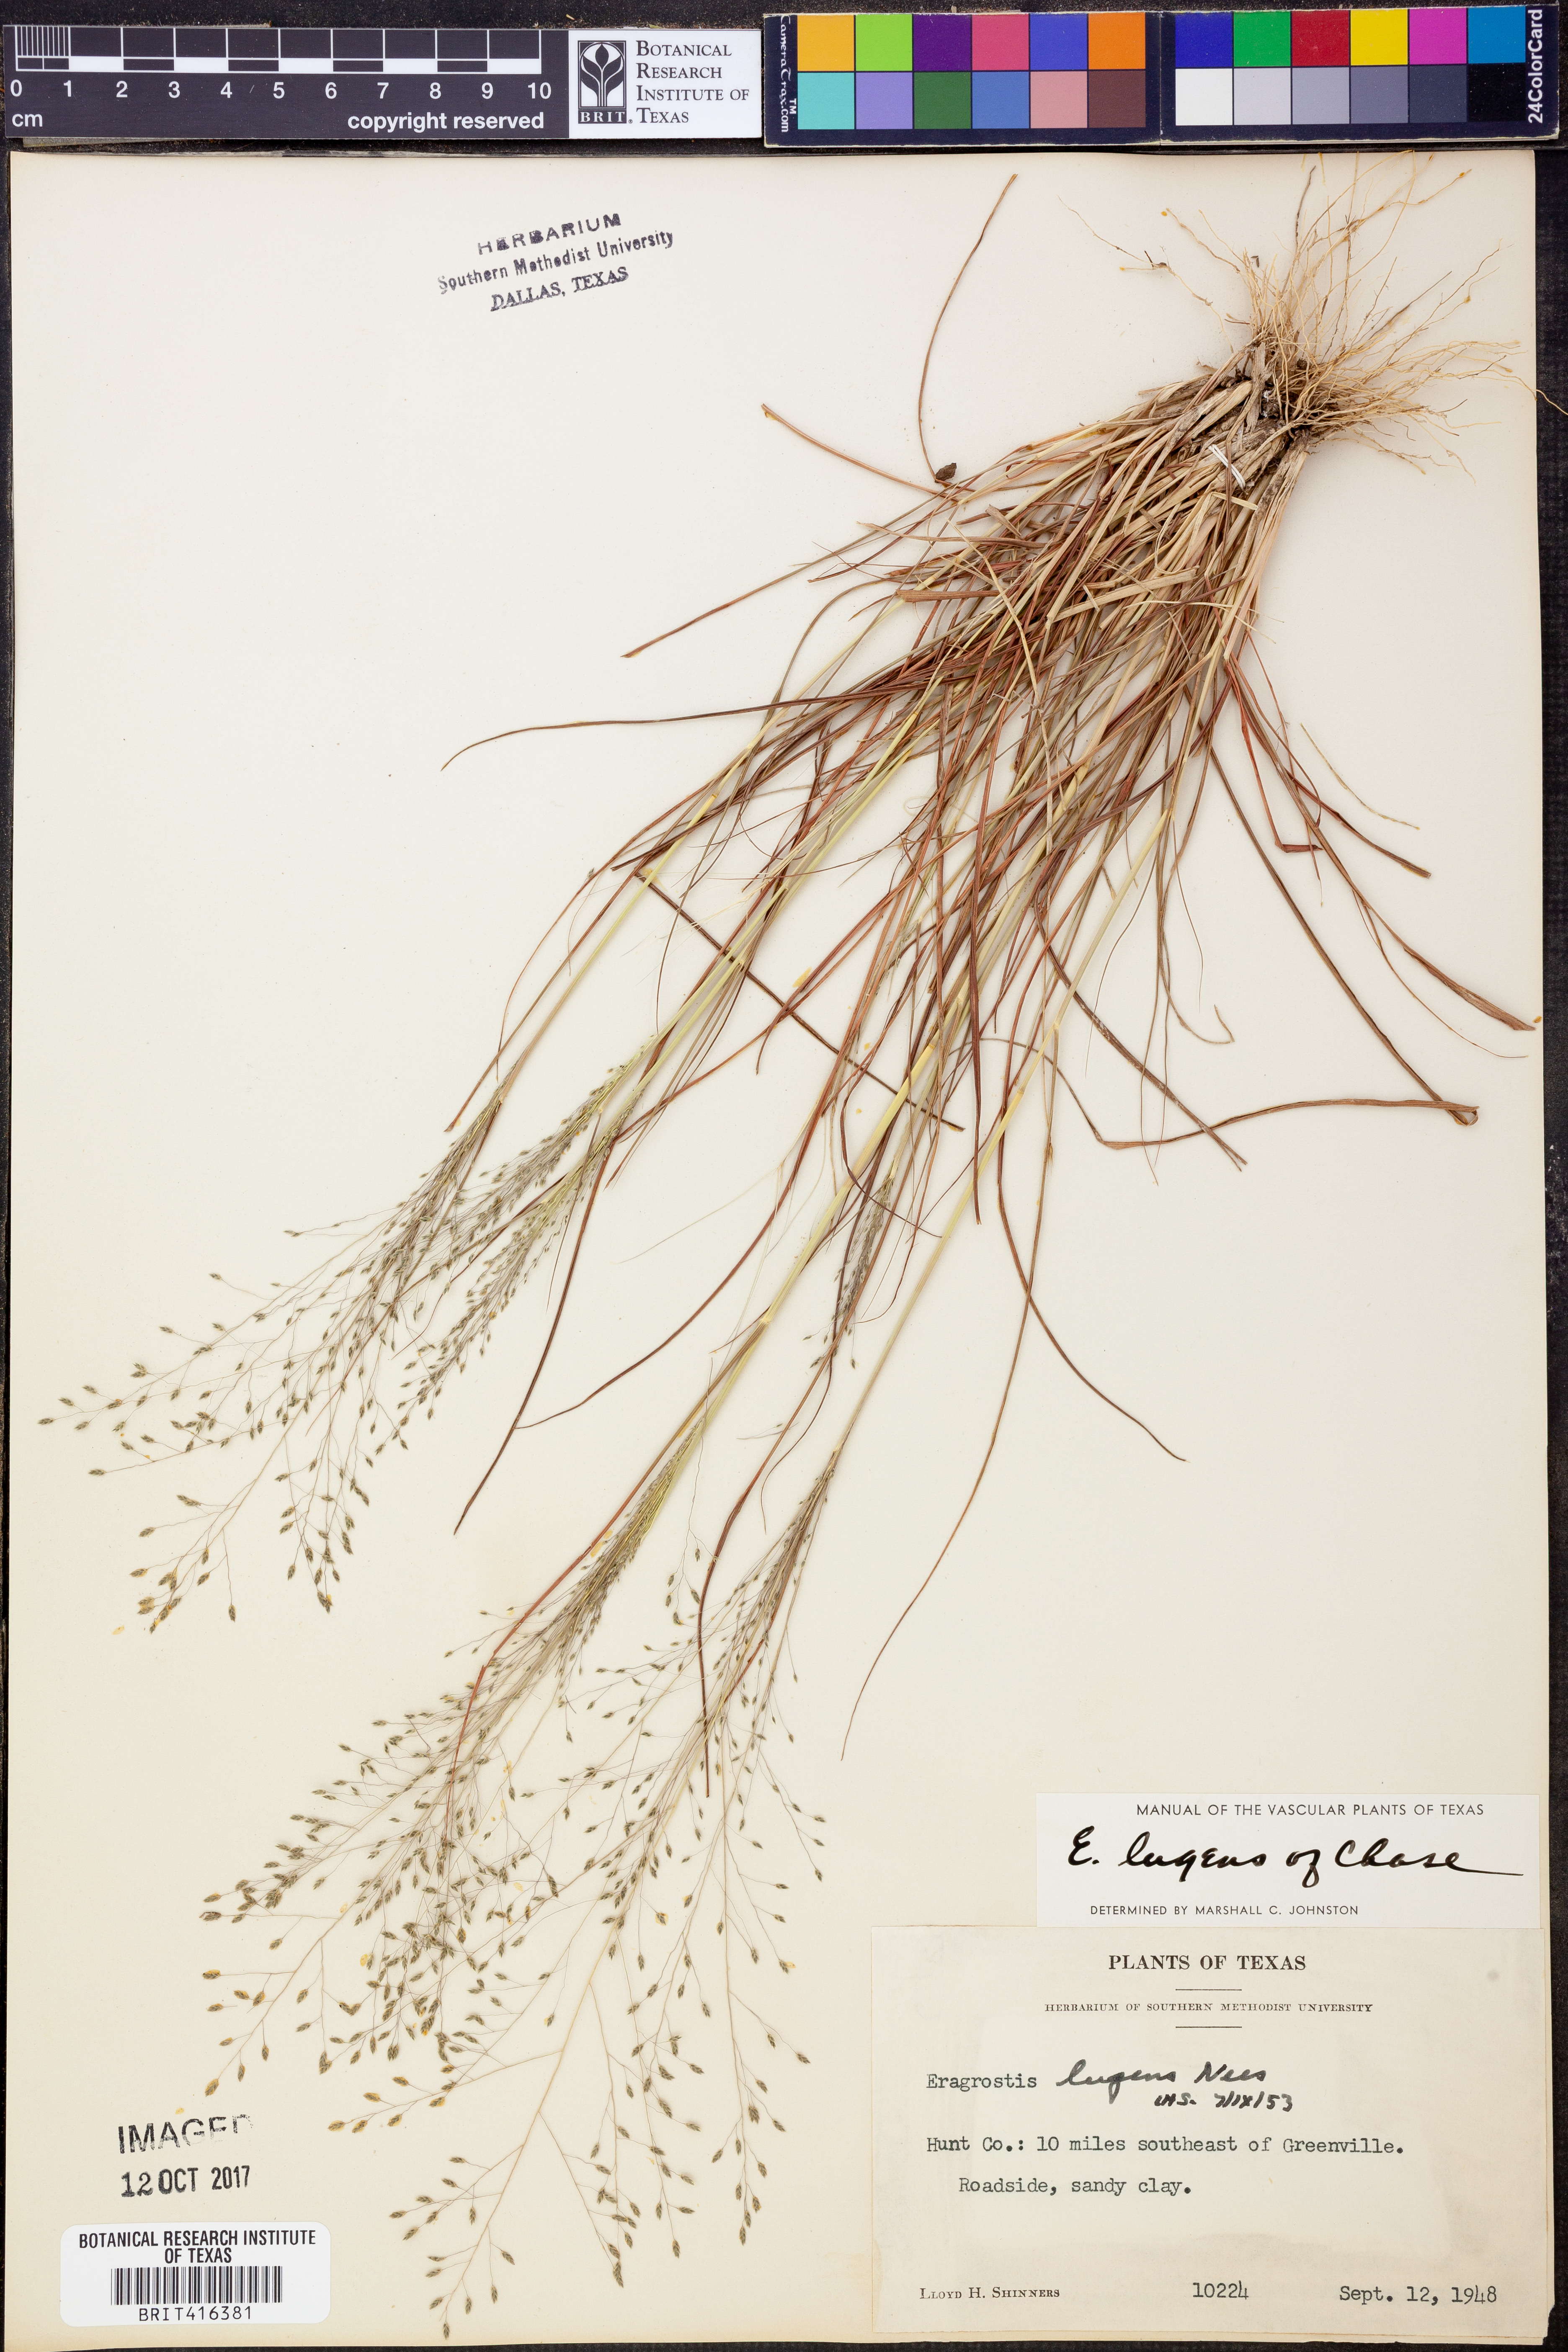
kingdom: Plantae
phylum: Tracheophyta
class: Liliopsida
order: Poales
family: Poaceae
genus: Eragrostis
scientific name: Eragrostis capillaris
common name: Hair-like lovegrass
